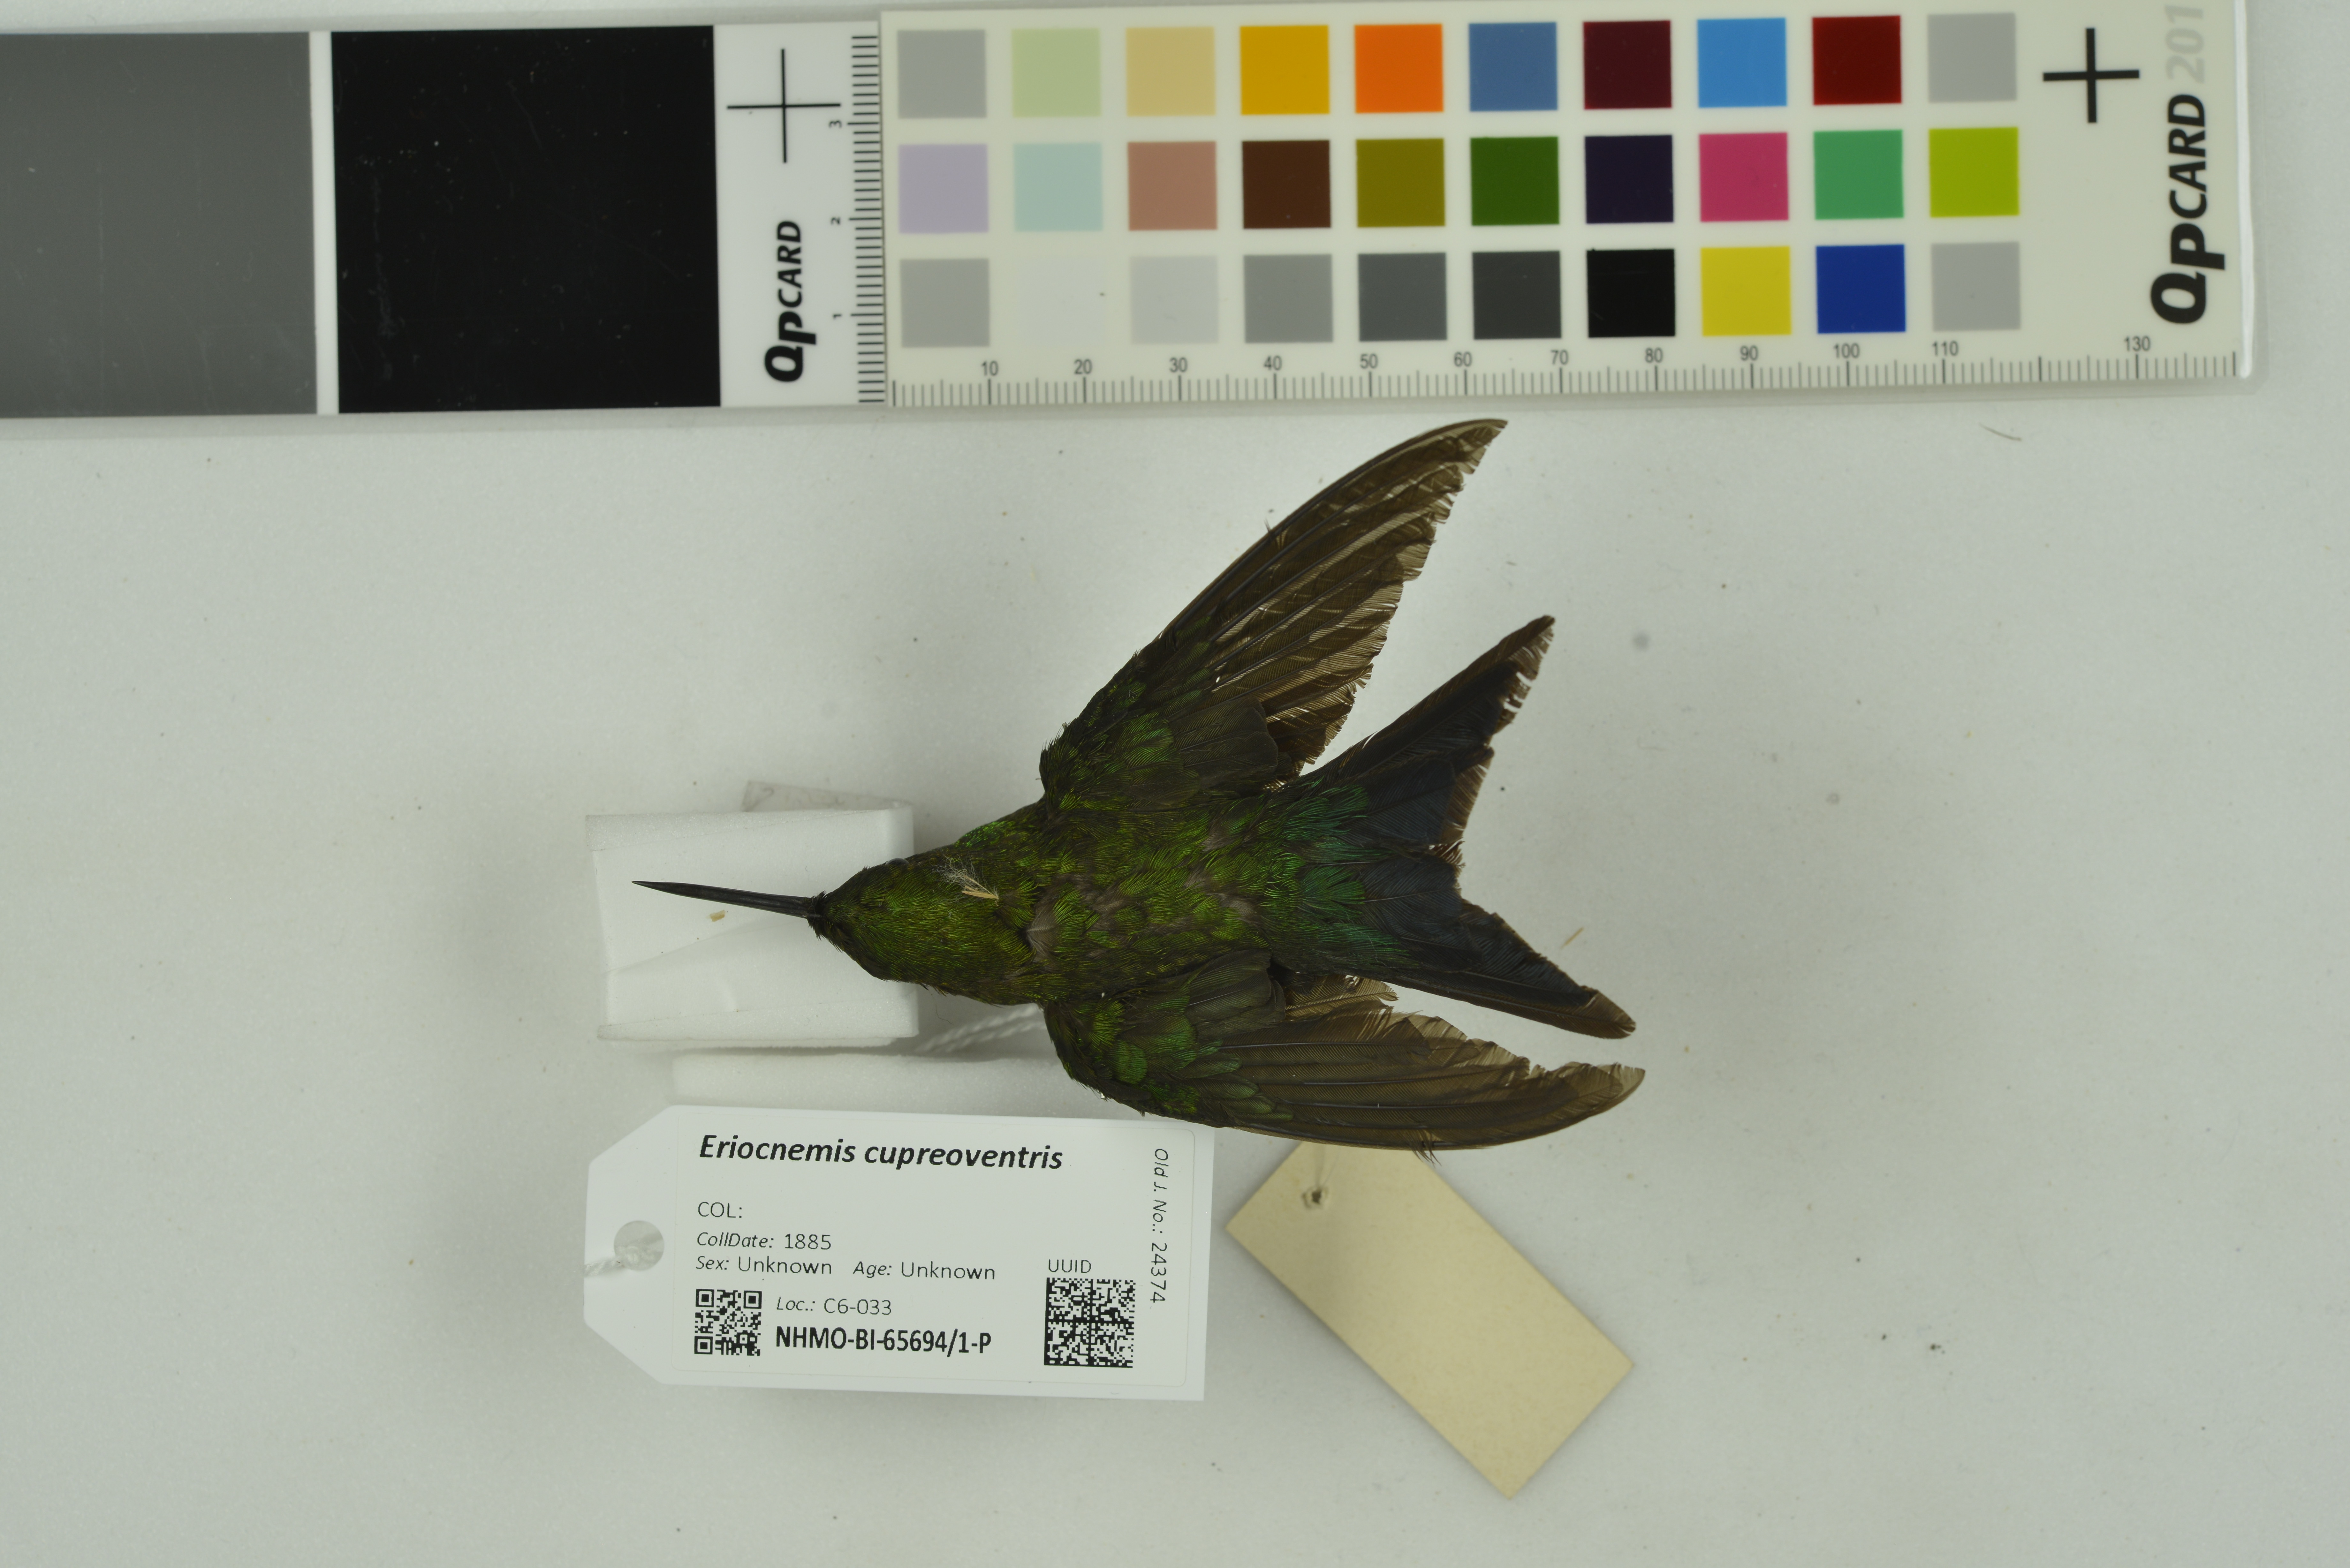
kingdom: Animalia
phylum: Chordata
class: Aves
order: Apodiformes
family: Trochilidae
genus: Eriocnemis
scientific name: Eriocnemis cupreoventris
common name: Coppery-bellied puffleg
